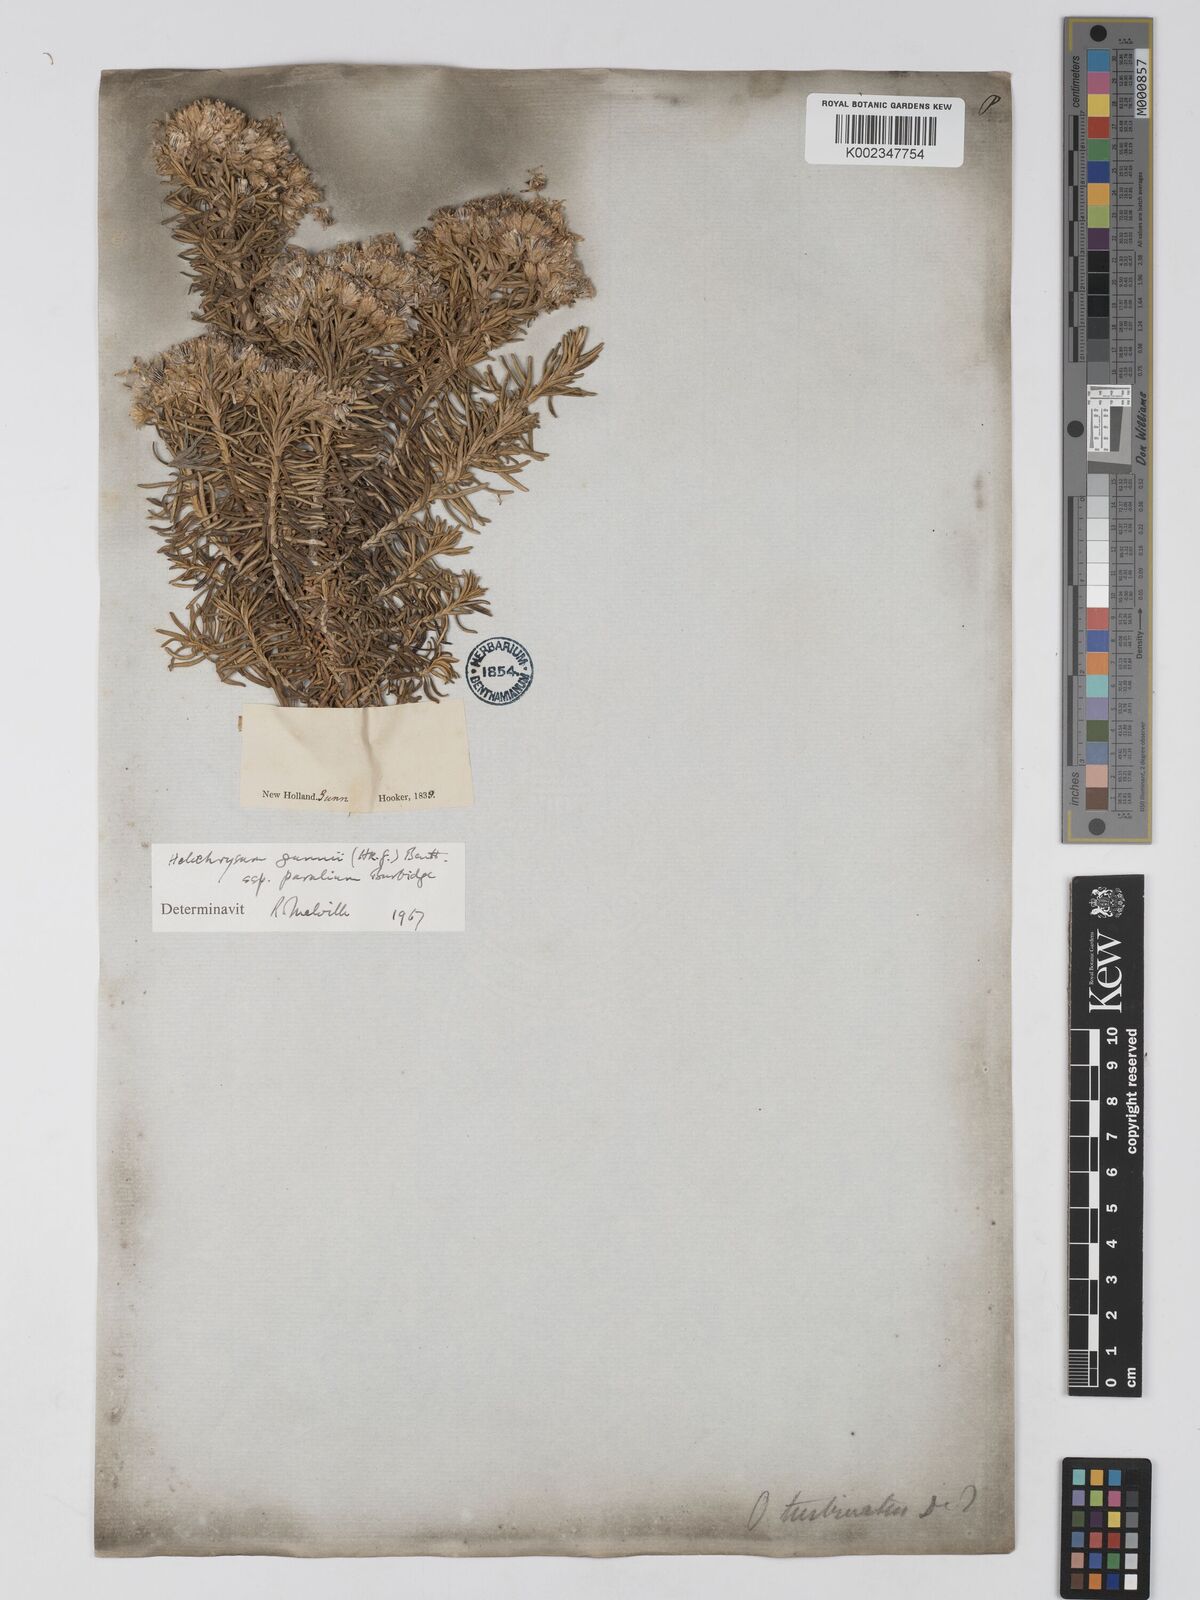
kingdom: Plantae
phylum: Tracheophyta
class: Magnoliopsida
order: Asterales
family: Asteraceae
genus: Ozothamnus
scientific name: Ozothamnus gunnii
